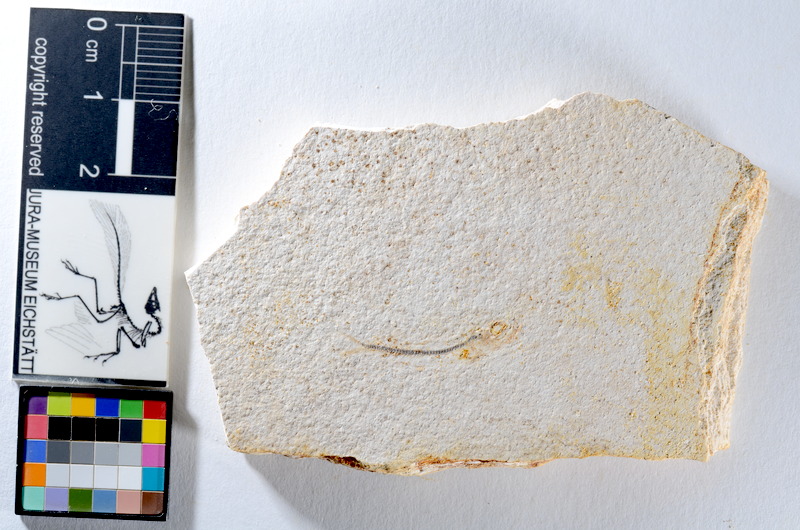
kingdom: Animalia
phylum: Chordata
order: Salmoniformes
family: Orthogonikleithridae
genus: Orthogonikleithrus
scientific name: Orthogonikleithrus hoelli
